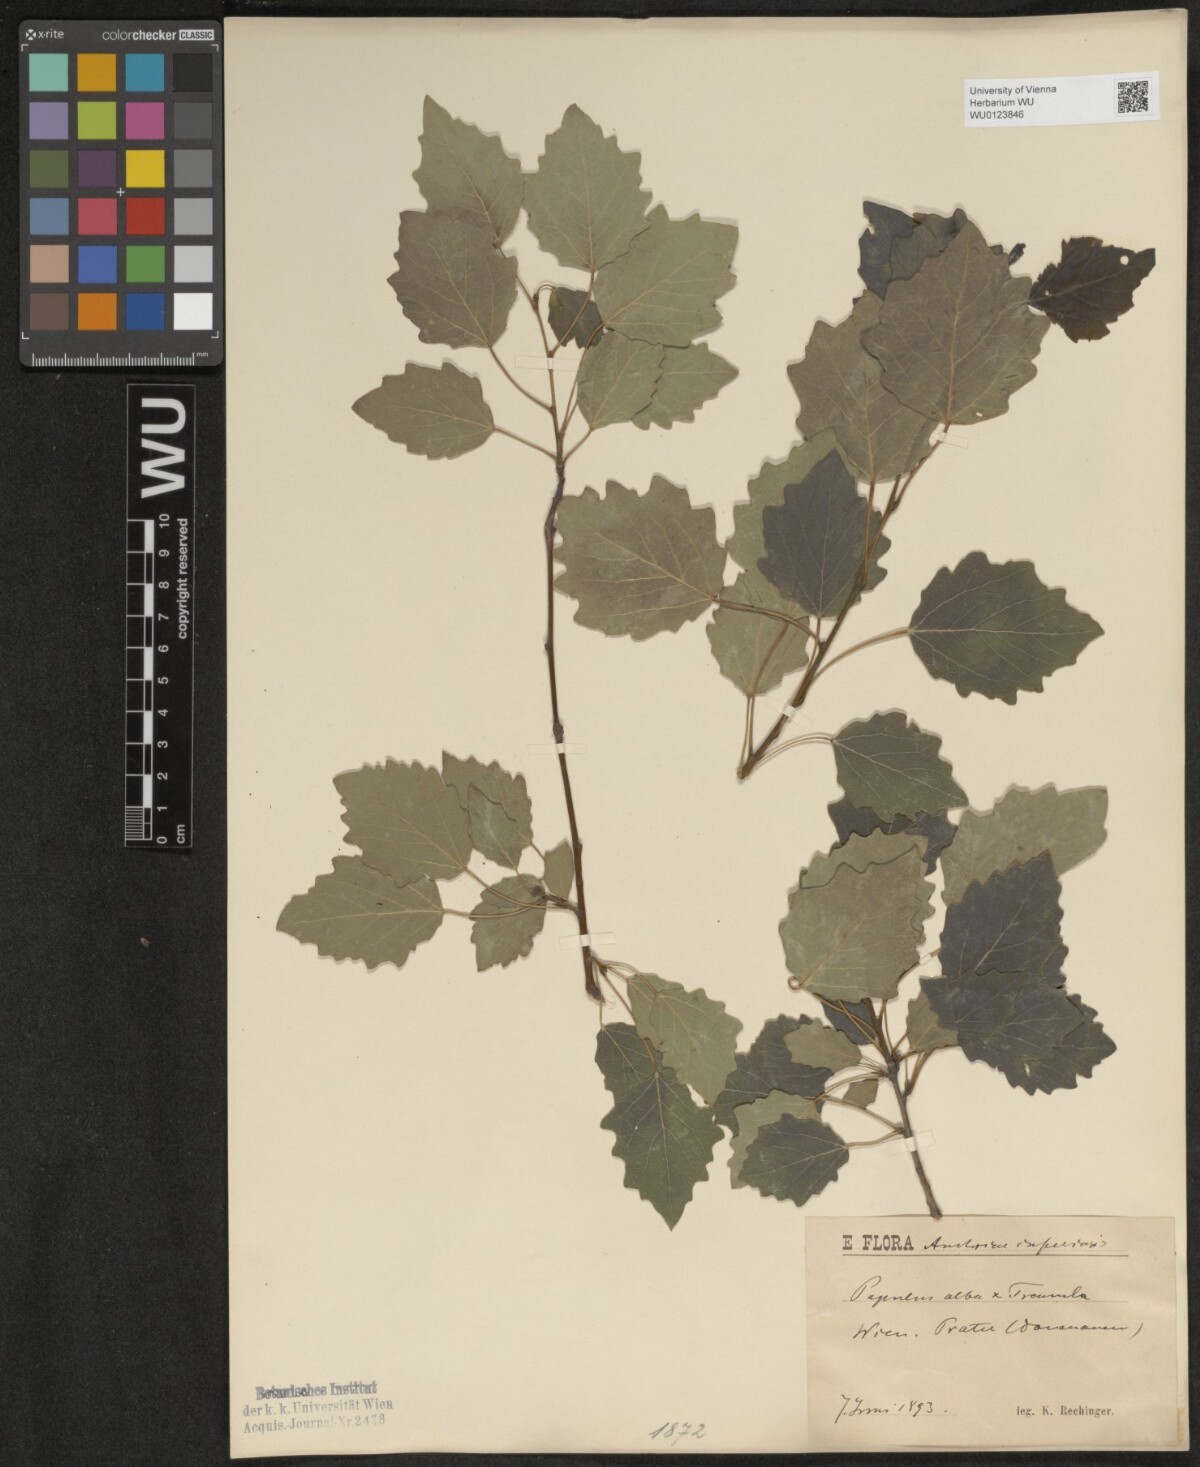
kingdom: Plantae
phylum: Tracheophyta
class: Magnoliopsida
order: Malpighiales
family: Salicaceae
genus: Populus
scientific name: Populus canescens
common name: Gray poplar
